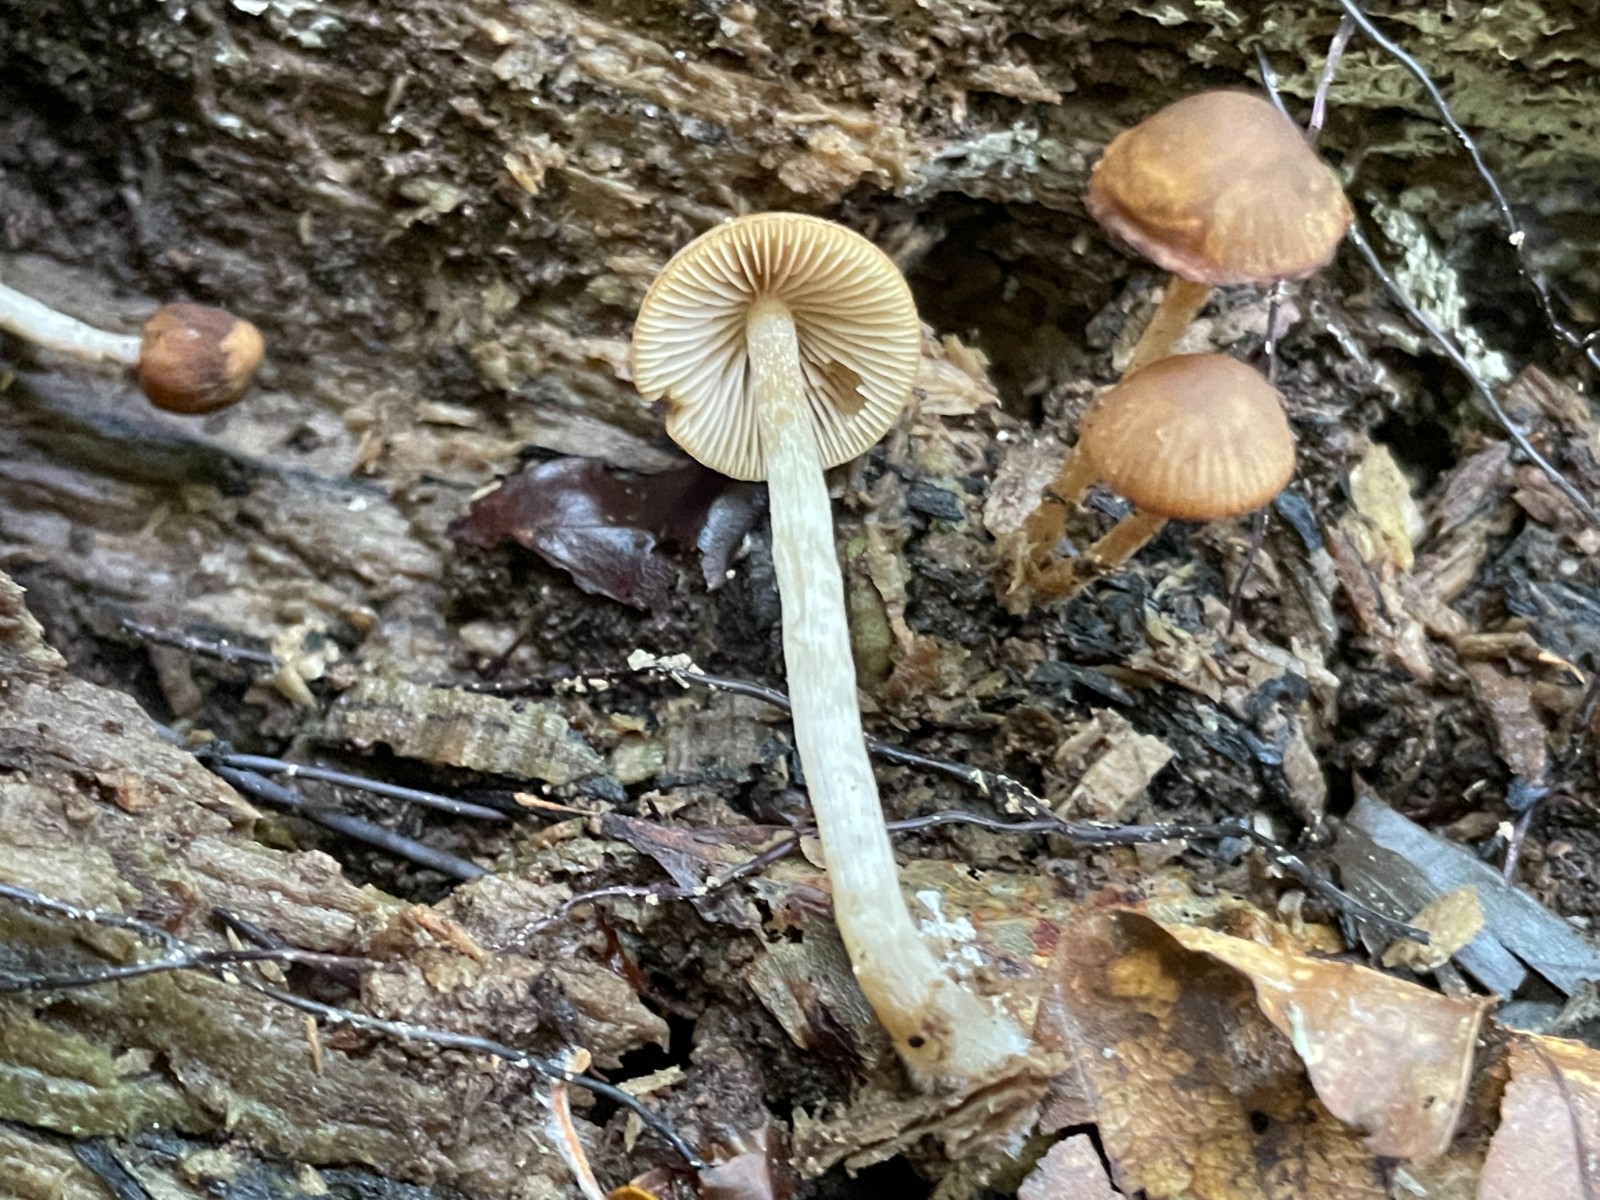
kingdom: Fungi
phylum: Basidiomycota
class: Agaricomycetes
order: Agaricales
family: Psathyrellaceae
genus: Psathyrella
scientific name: Psathyrella
